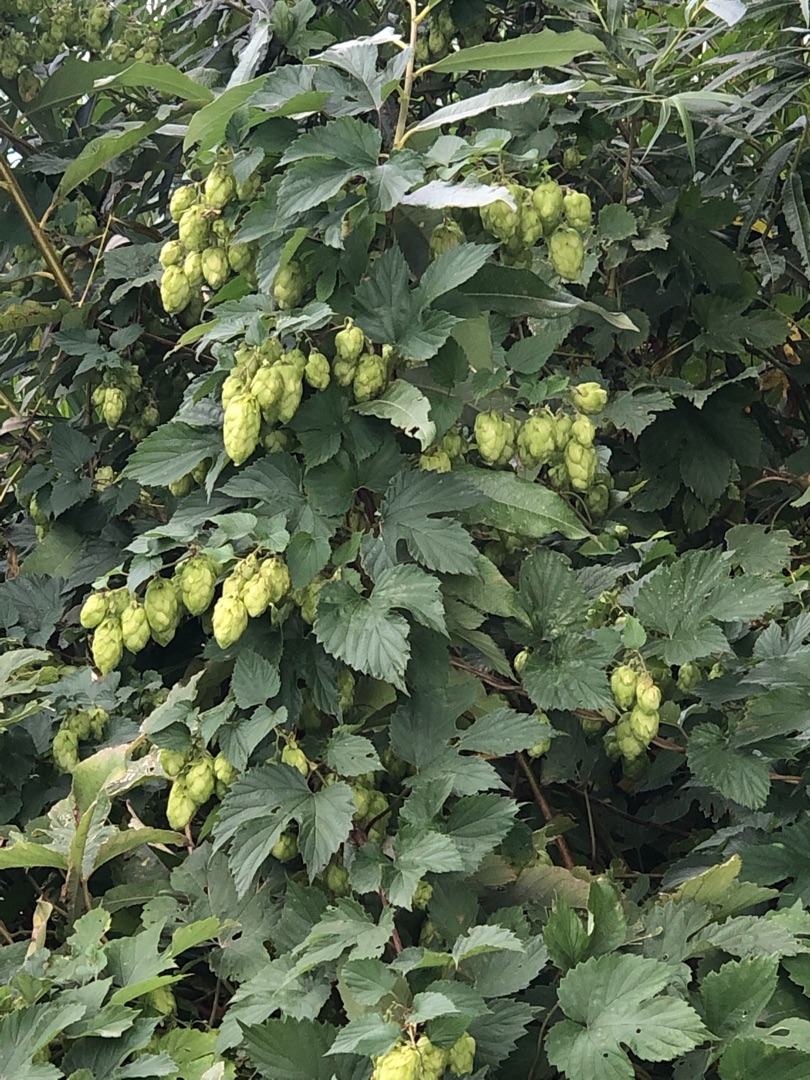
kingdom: Plantae
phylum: Tracheophyta
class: Magnoliopsida
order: Rosales
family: Cannabaceae
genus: Humulus
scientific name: Humulus lupulus
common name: Humle
